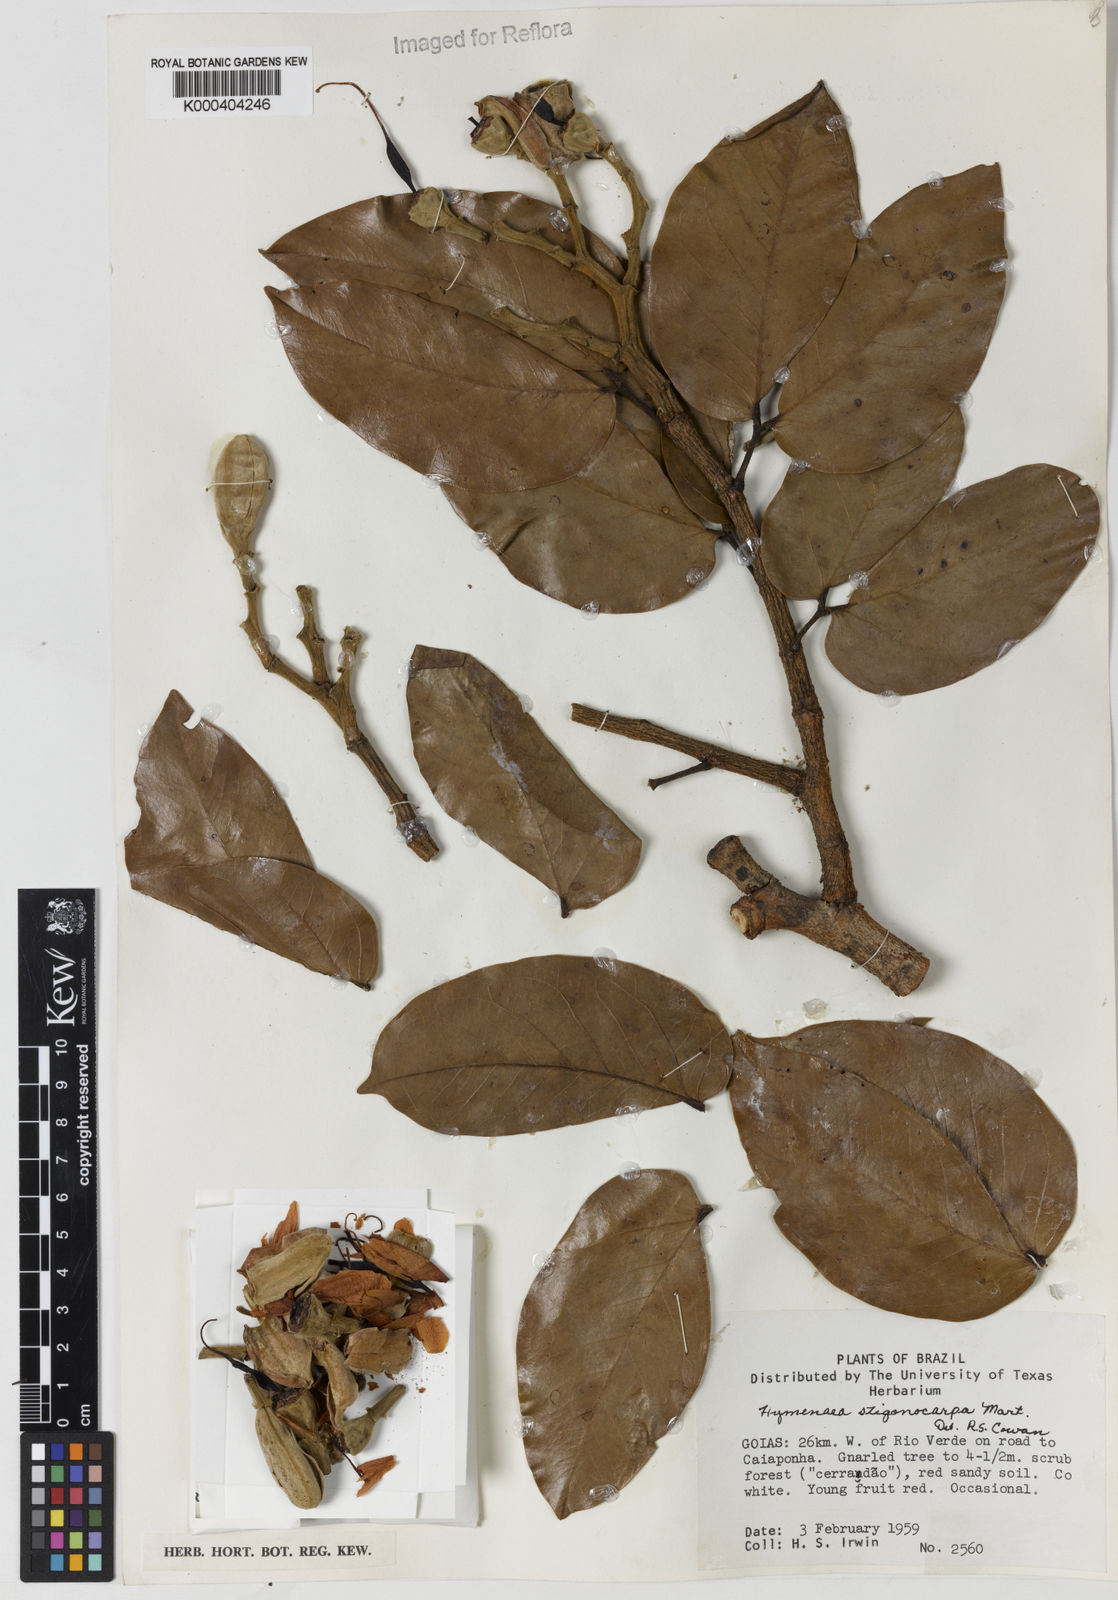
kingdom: Plantae
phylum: Tracheophyta
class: Magnoliopsida
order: Fabales
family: Fabaceae
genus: Hymenaea
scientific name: Hymenaea stigonocarpa
